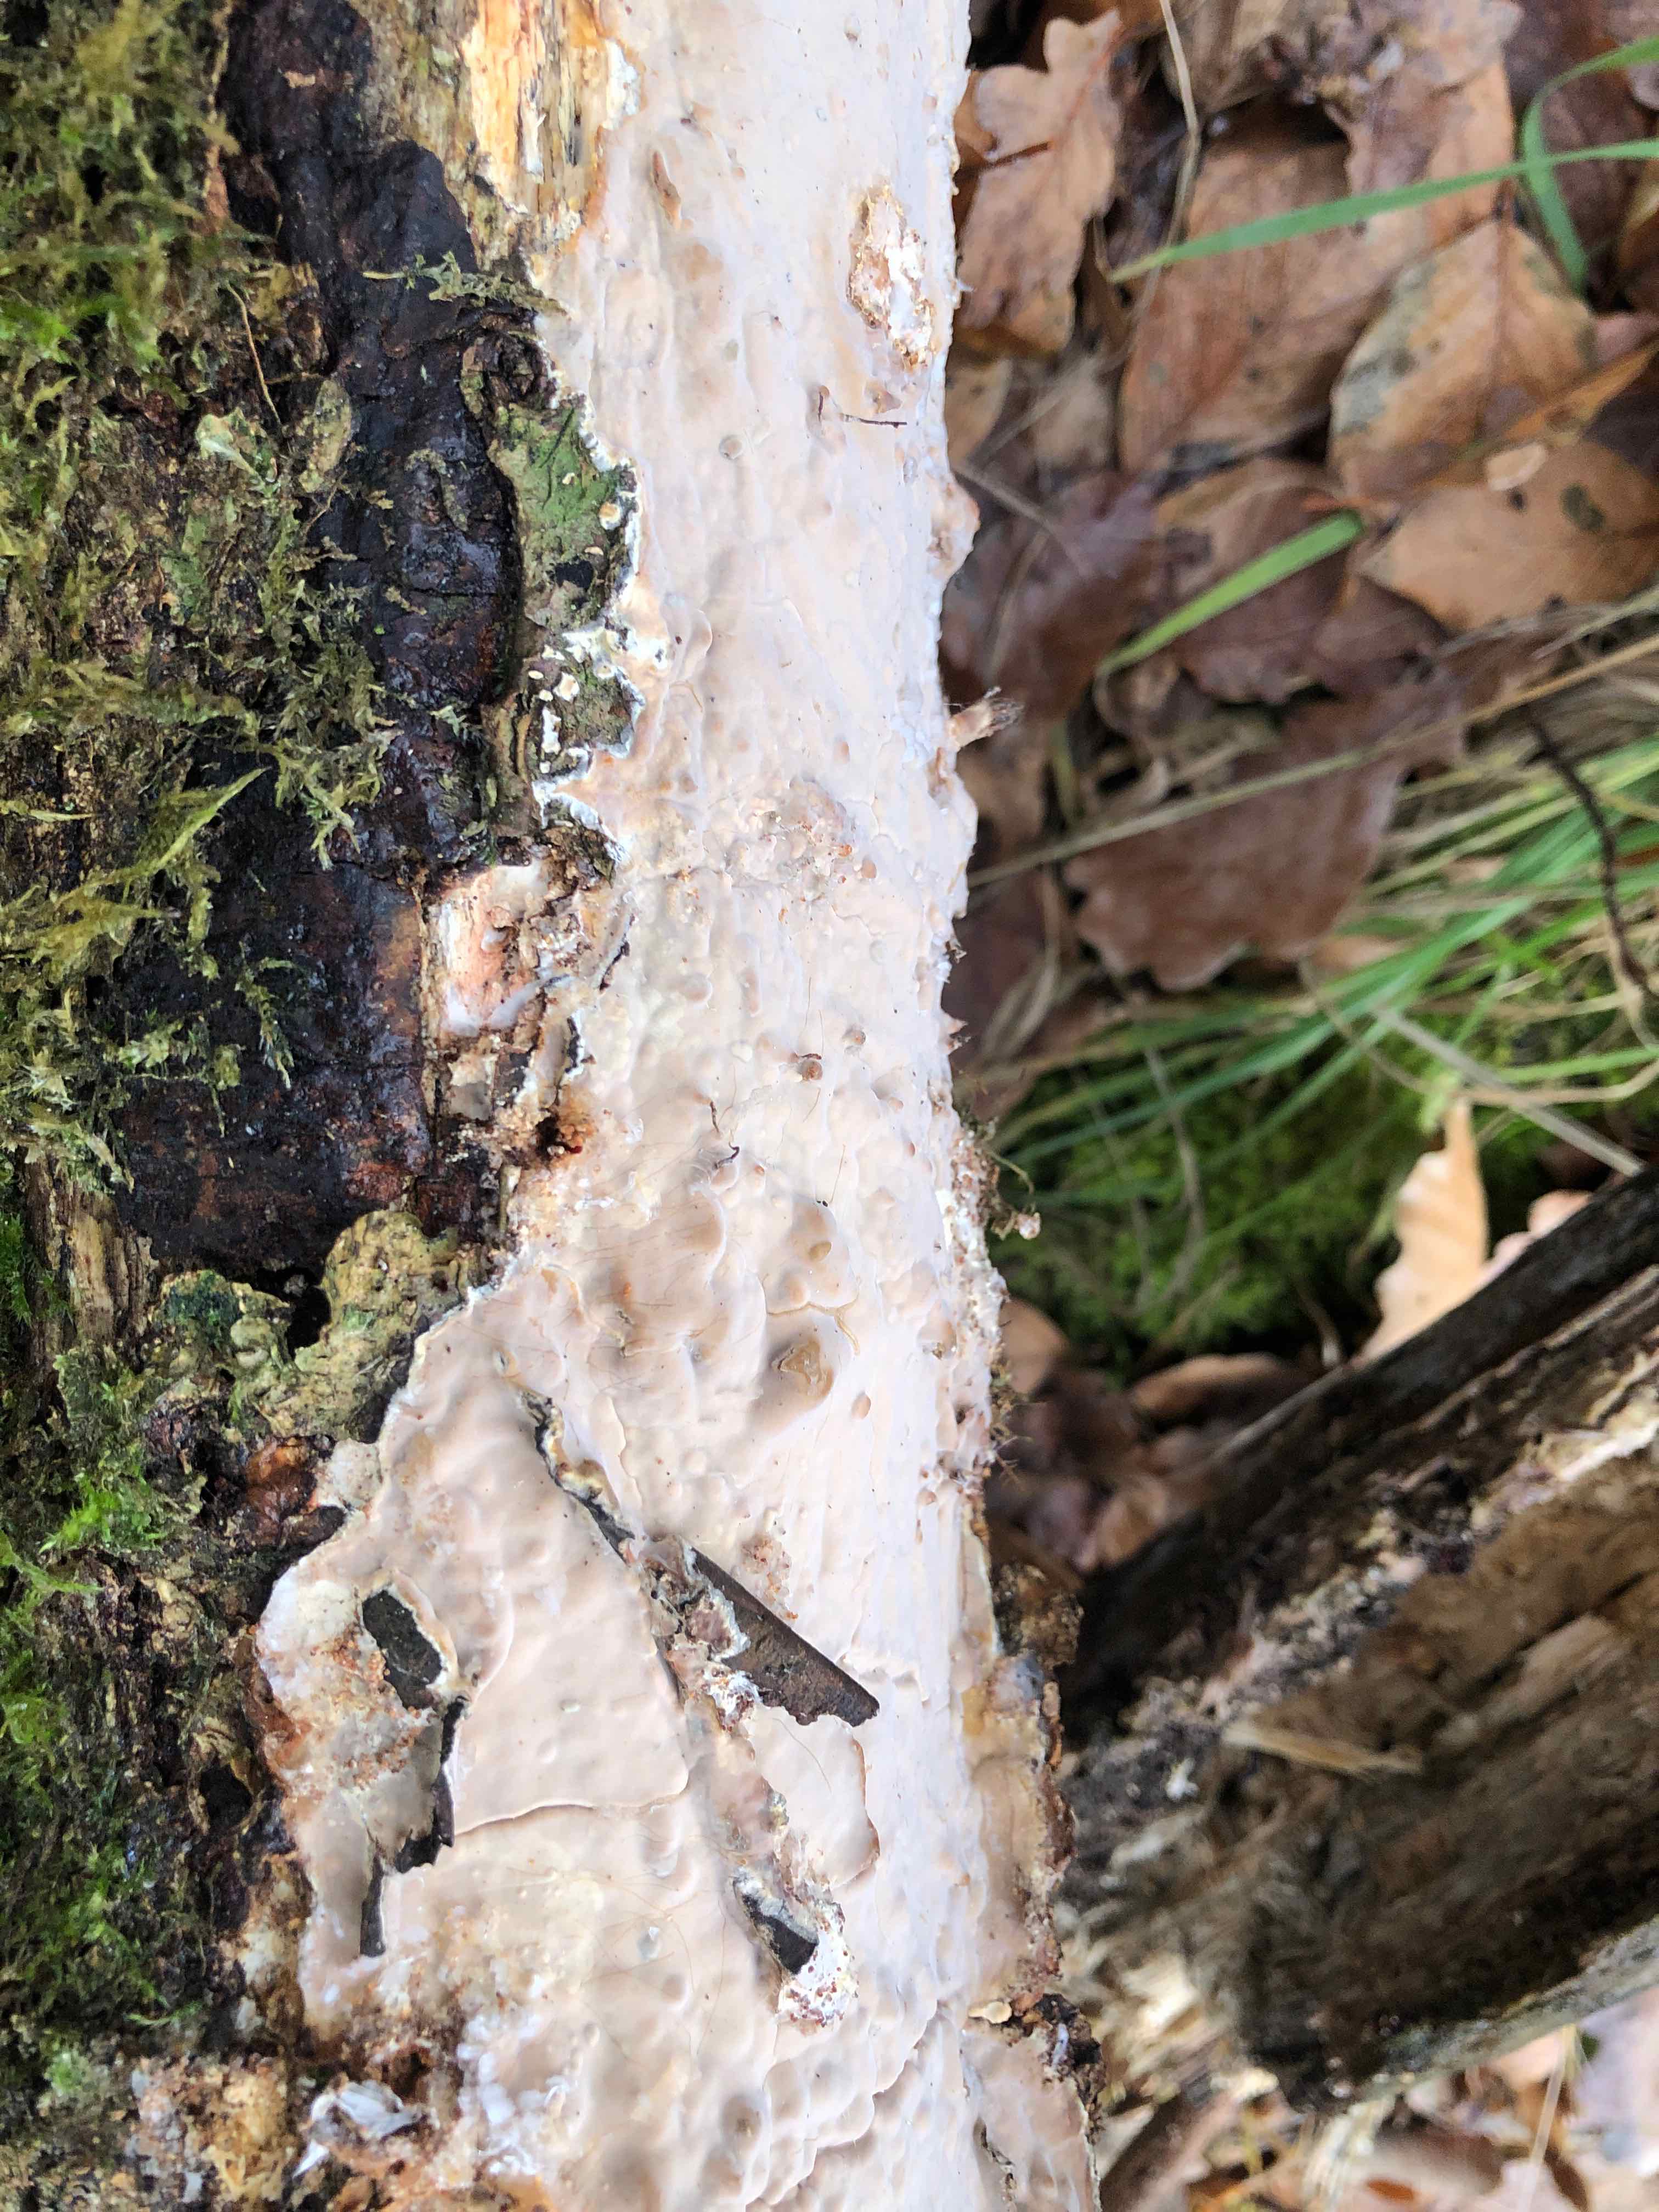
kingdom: Fungi
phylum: Basidiomycota
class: Agaricomycetes
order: Russulales
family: Peniophoraceae
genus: Scytinostroma
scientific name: Scytinostroma hemidichophyticum
